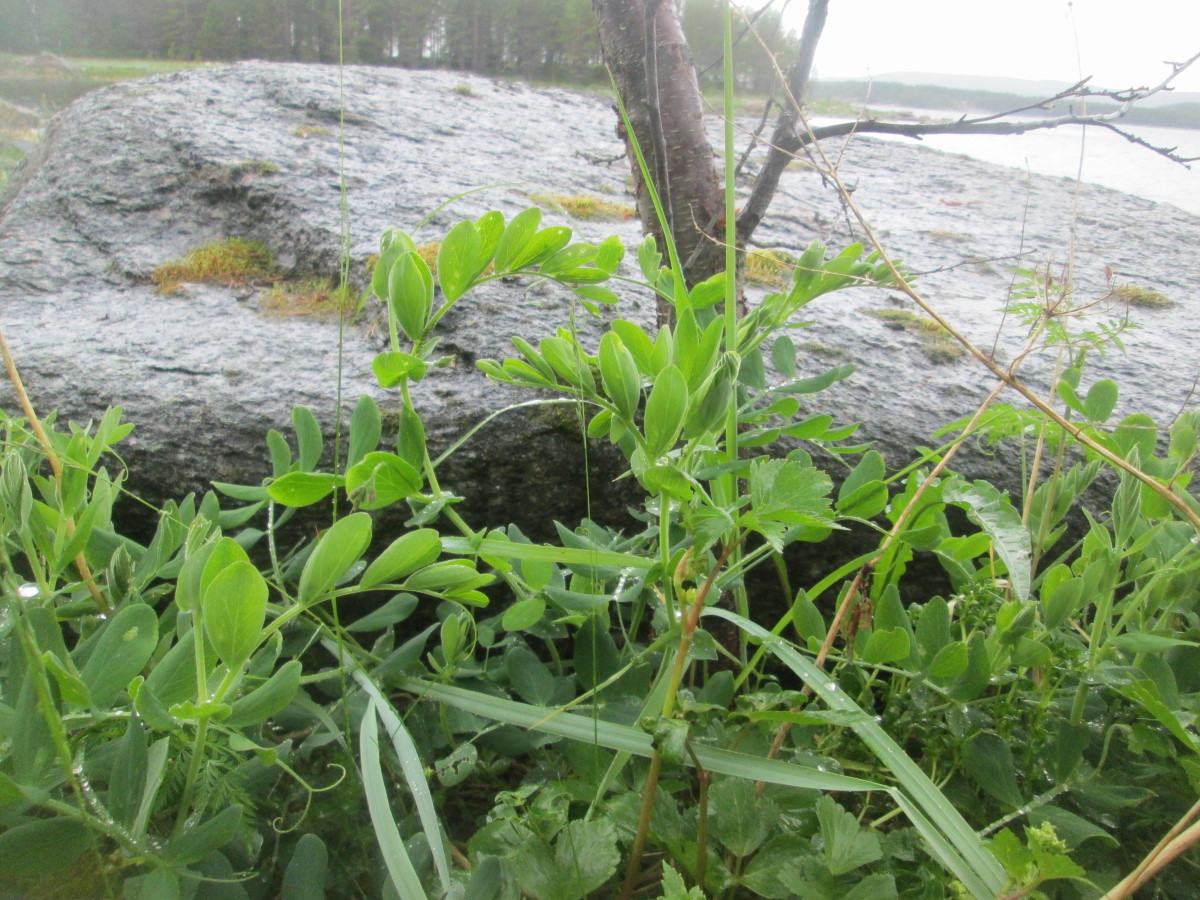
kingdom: Plantae
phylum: Tracheophyta
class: Magnoliopsida
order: Fabales
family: Fabaceae
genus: Lathyrus
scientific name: Lathyrus japonicus
